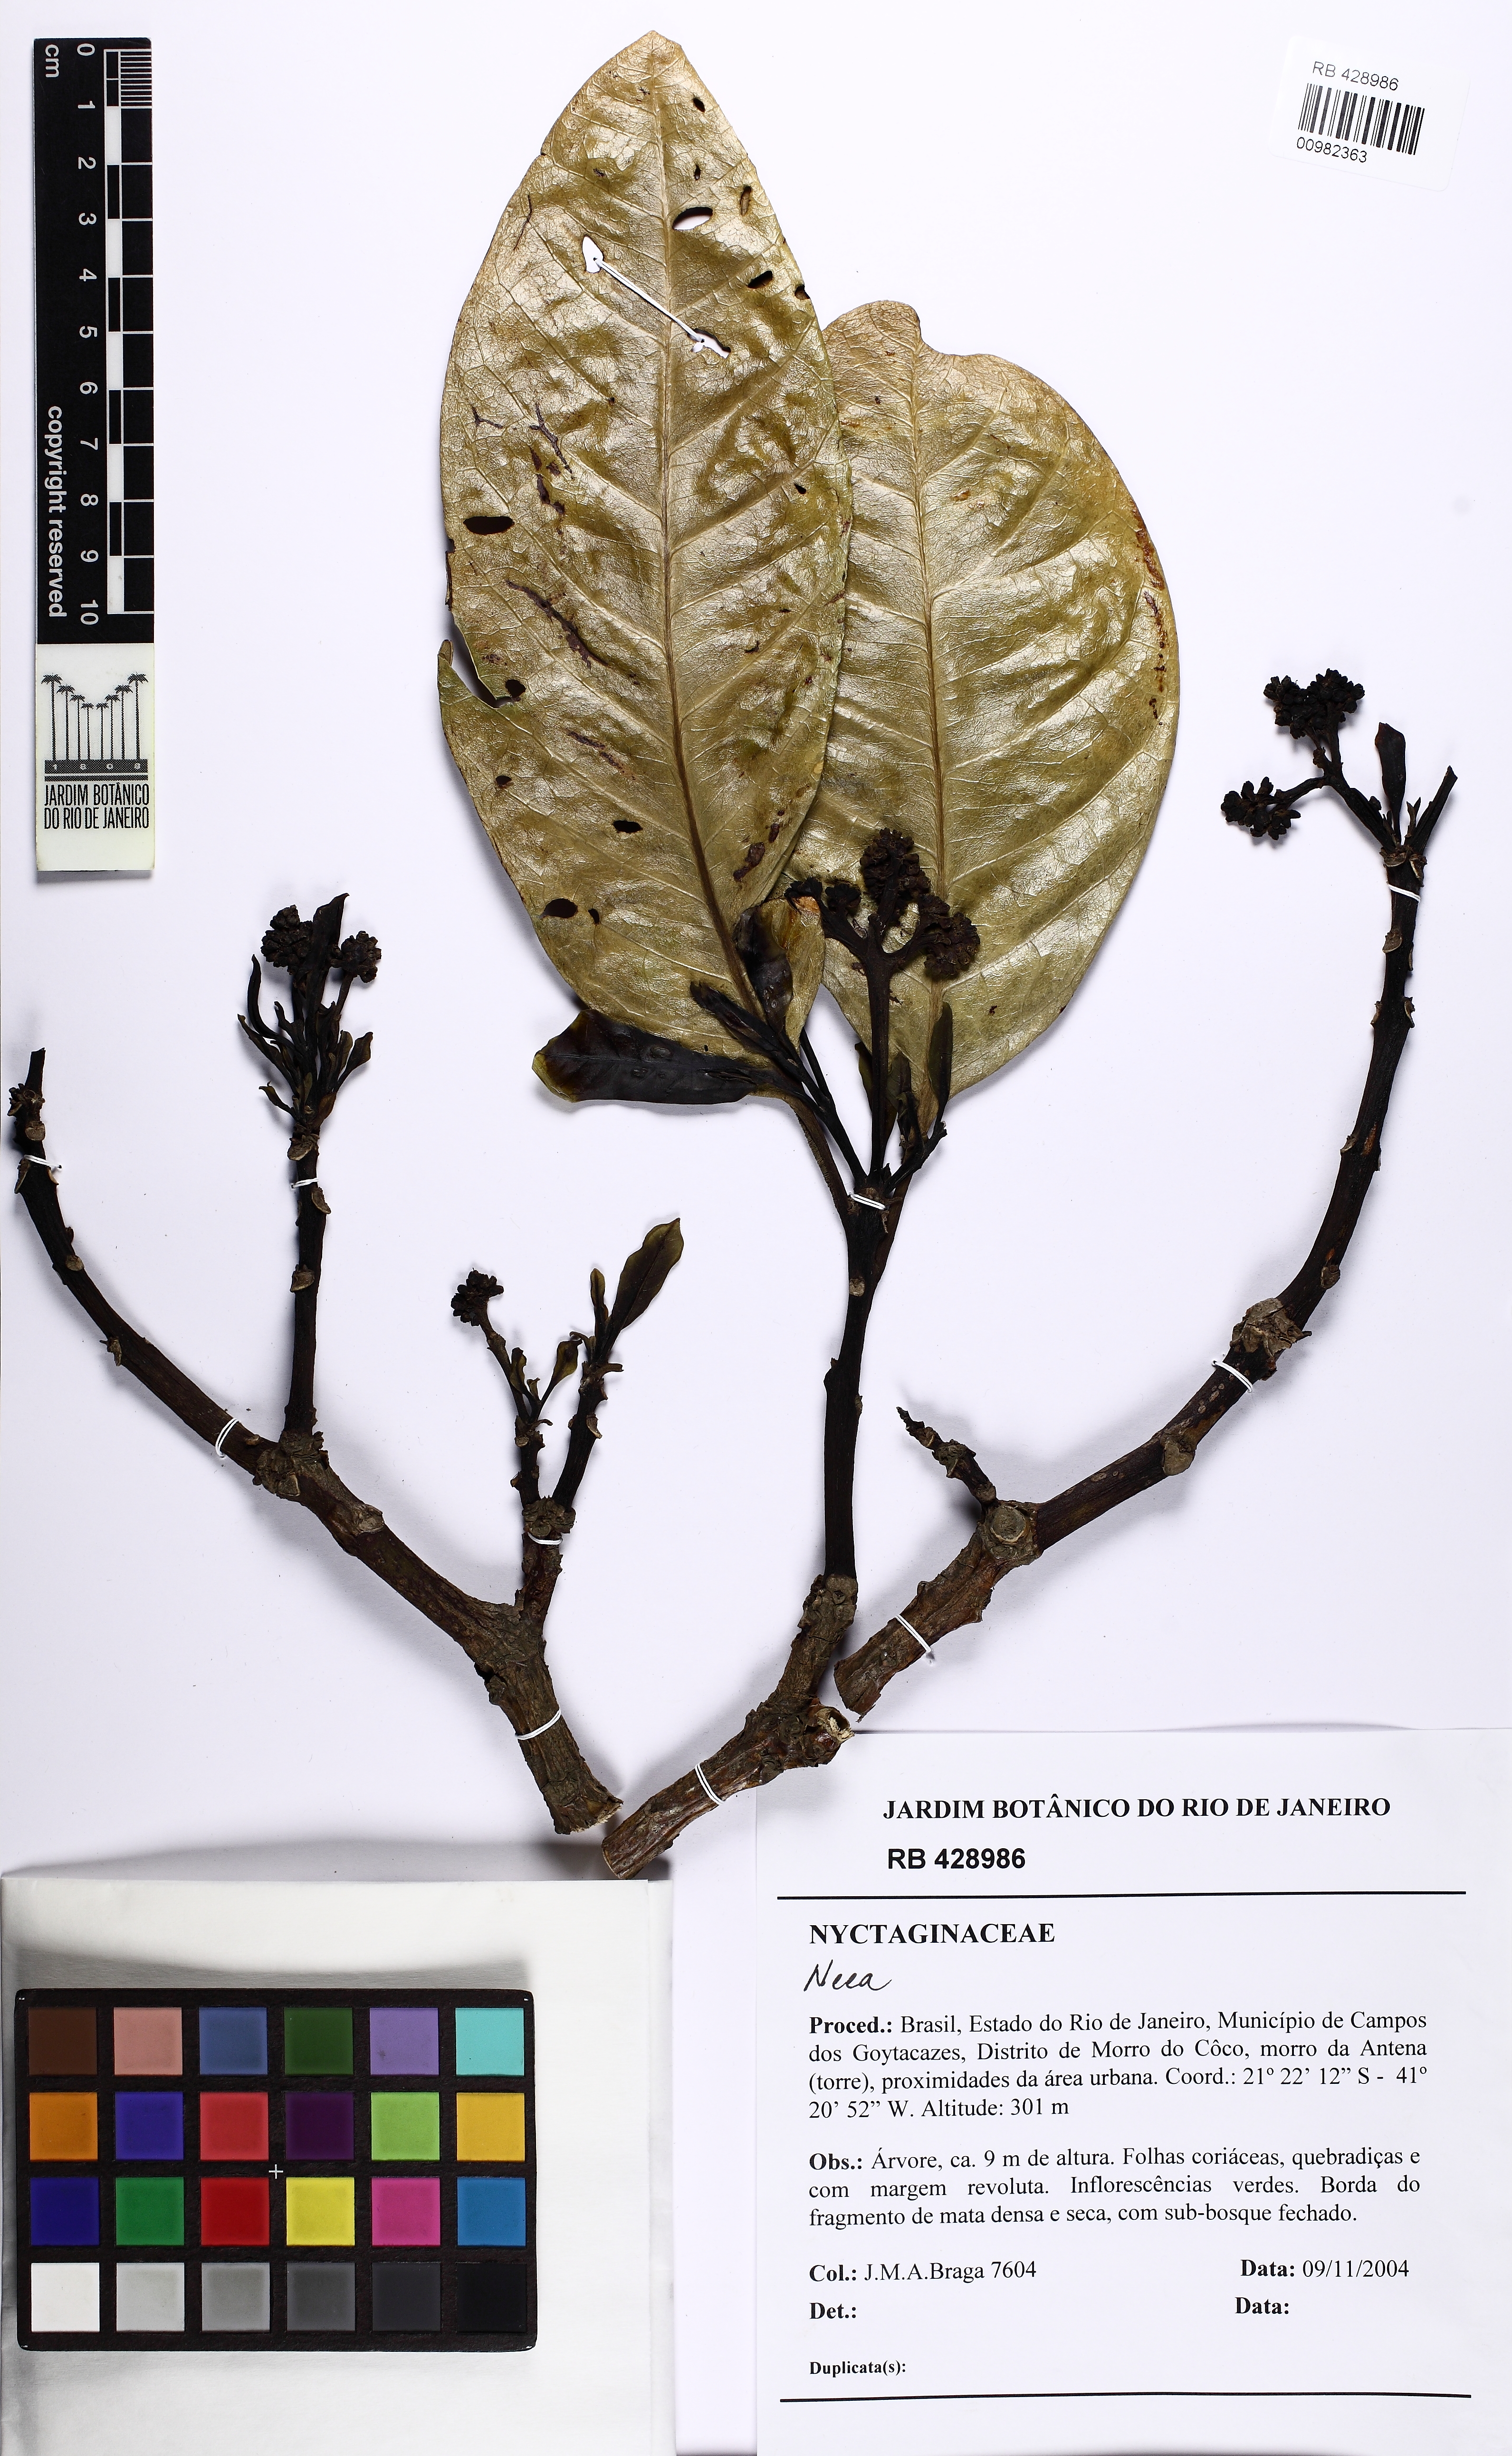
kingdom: Plantae
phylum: Tracheophyta
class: Magnoliopsida
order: Caryophyllales
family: Nyctaginaceae
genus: Neea
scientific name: Neea
